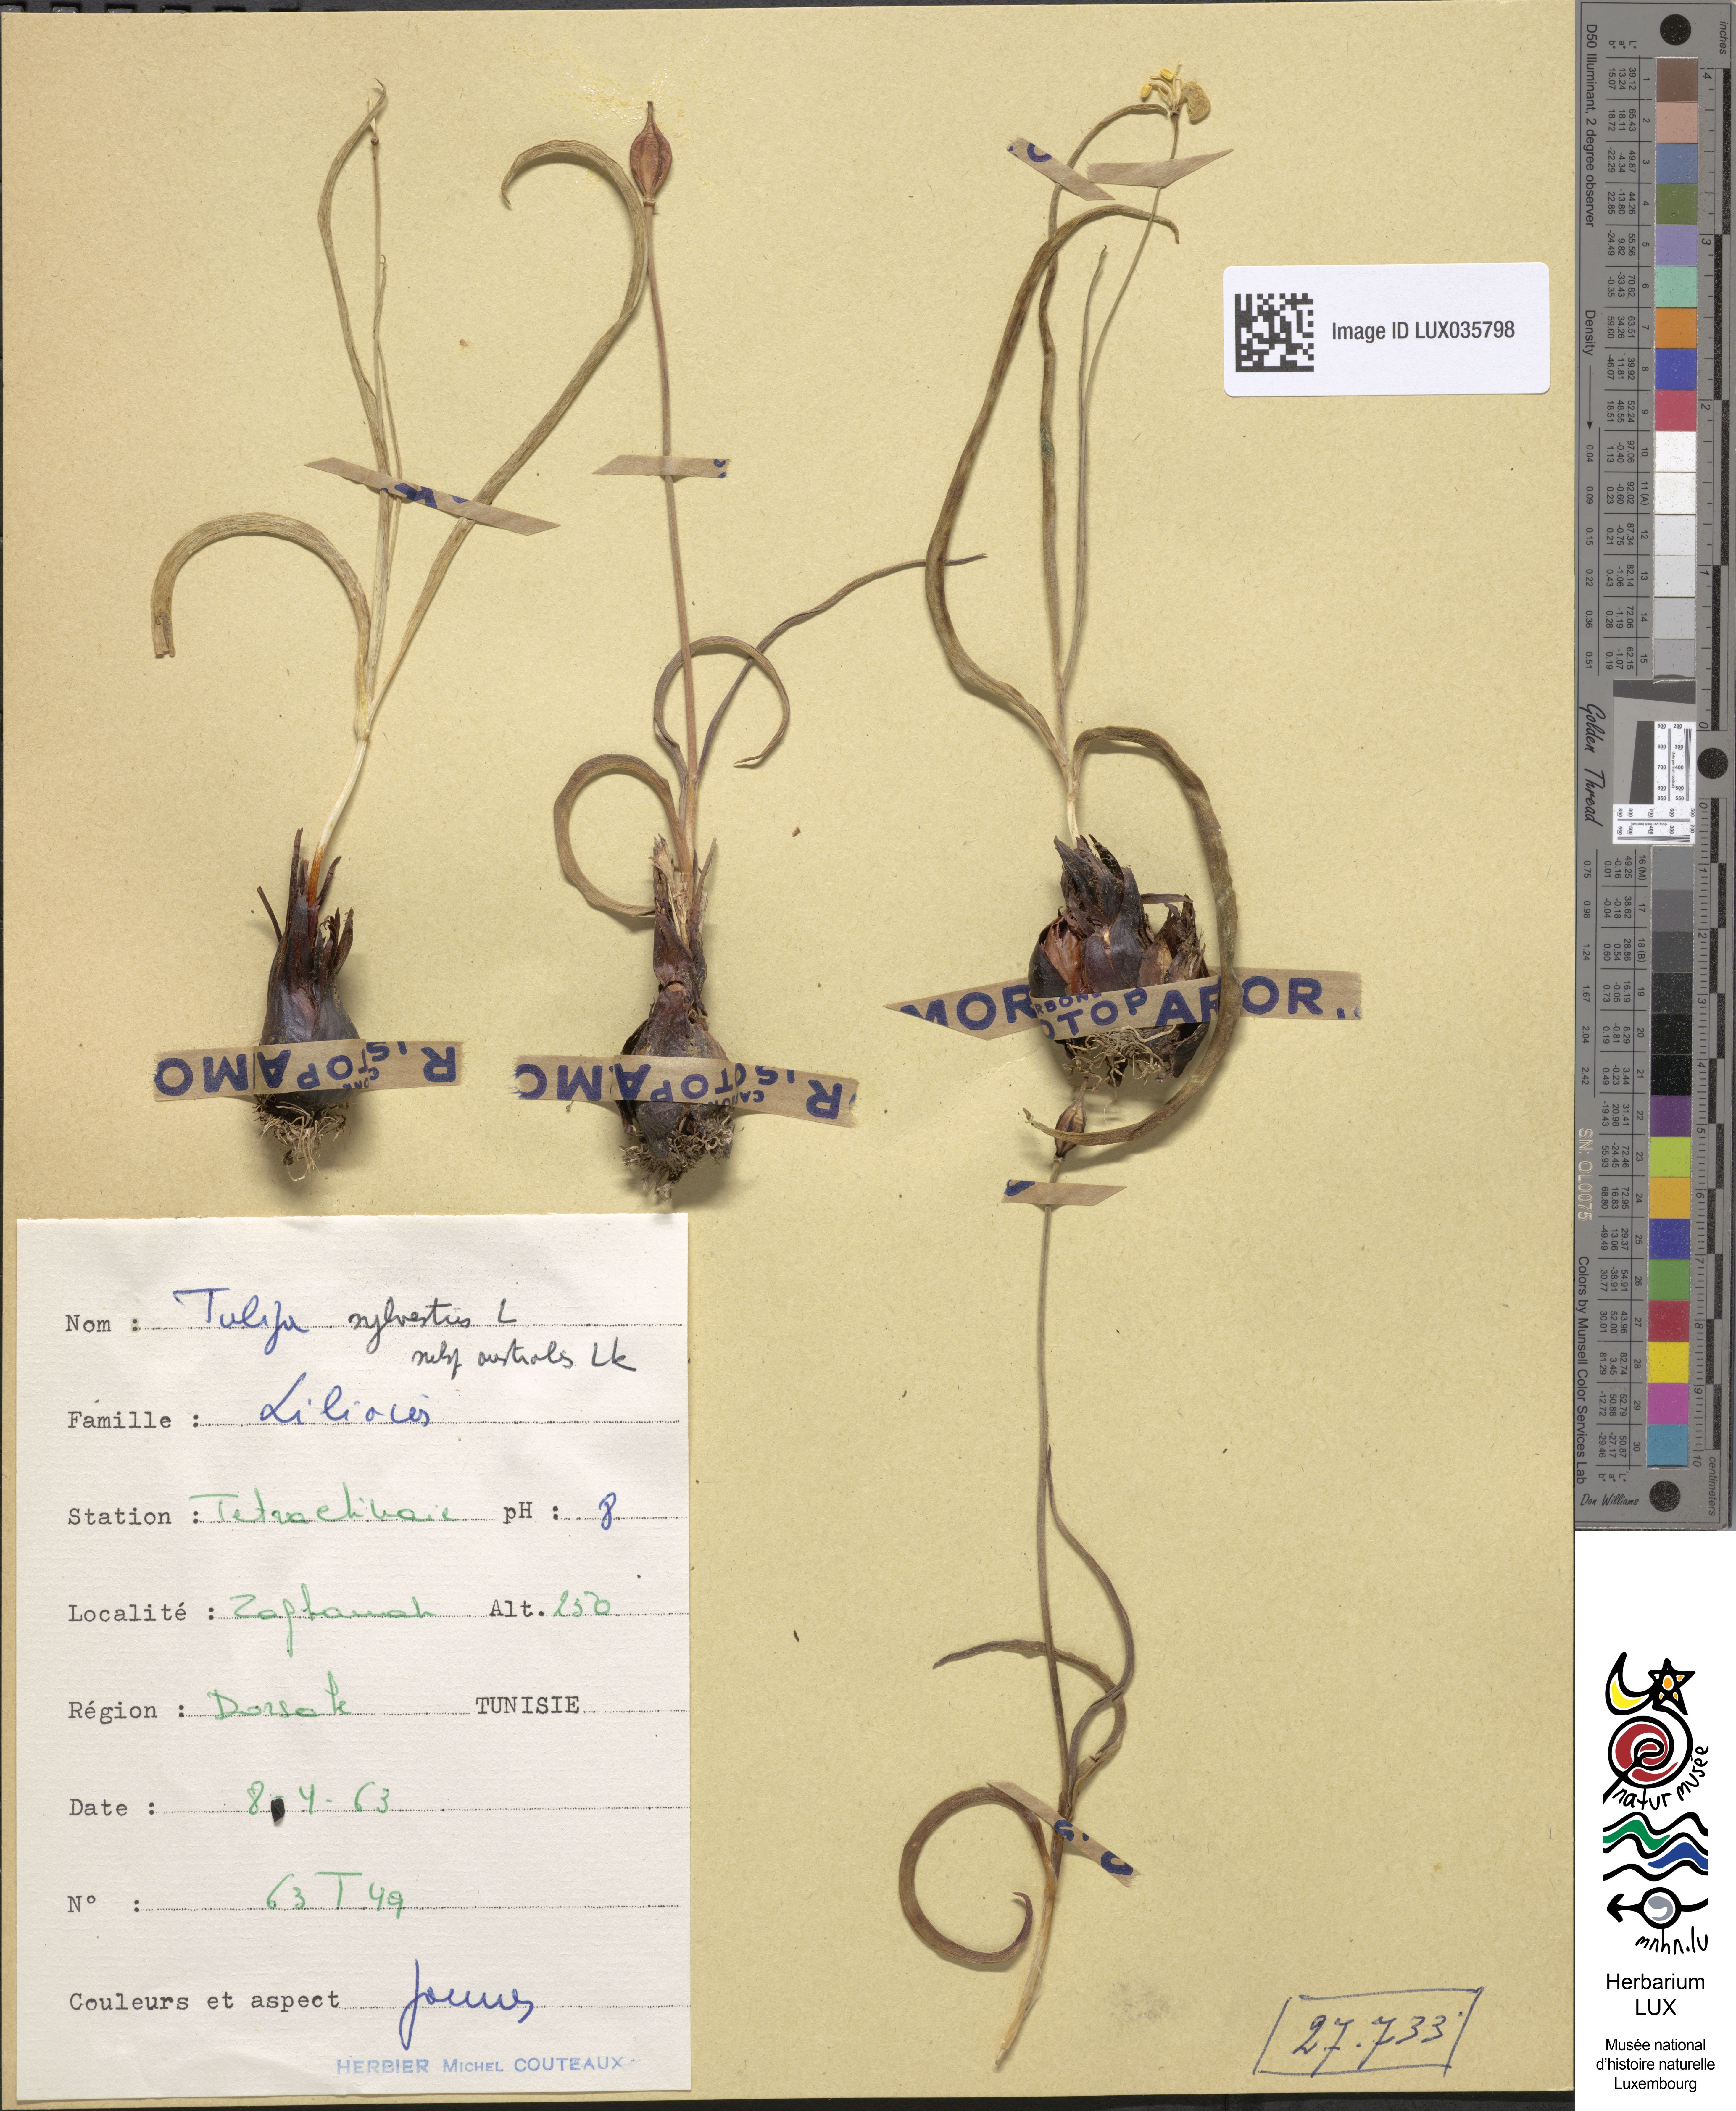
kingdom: Plantae
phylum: Tracheophyta
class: Liliopsida
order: Liliales
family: Liliaceae
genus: Tulipa
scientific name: Tulipa sylvestris
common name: Wild tulip
